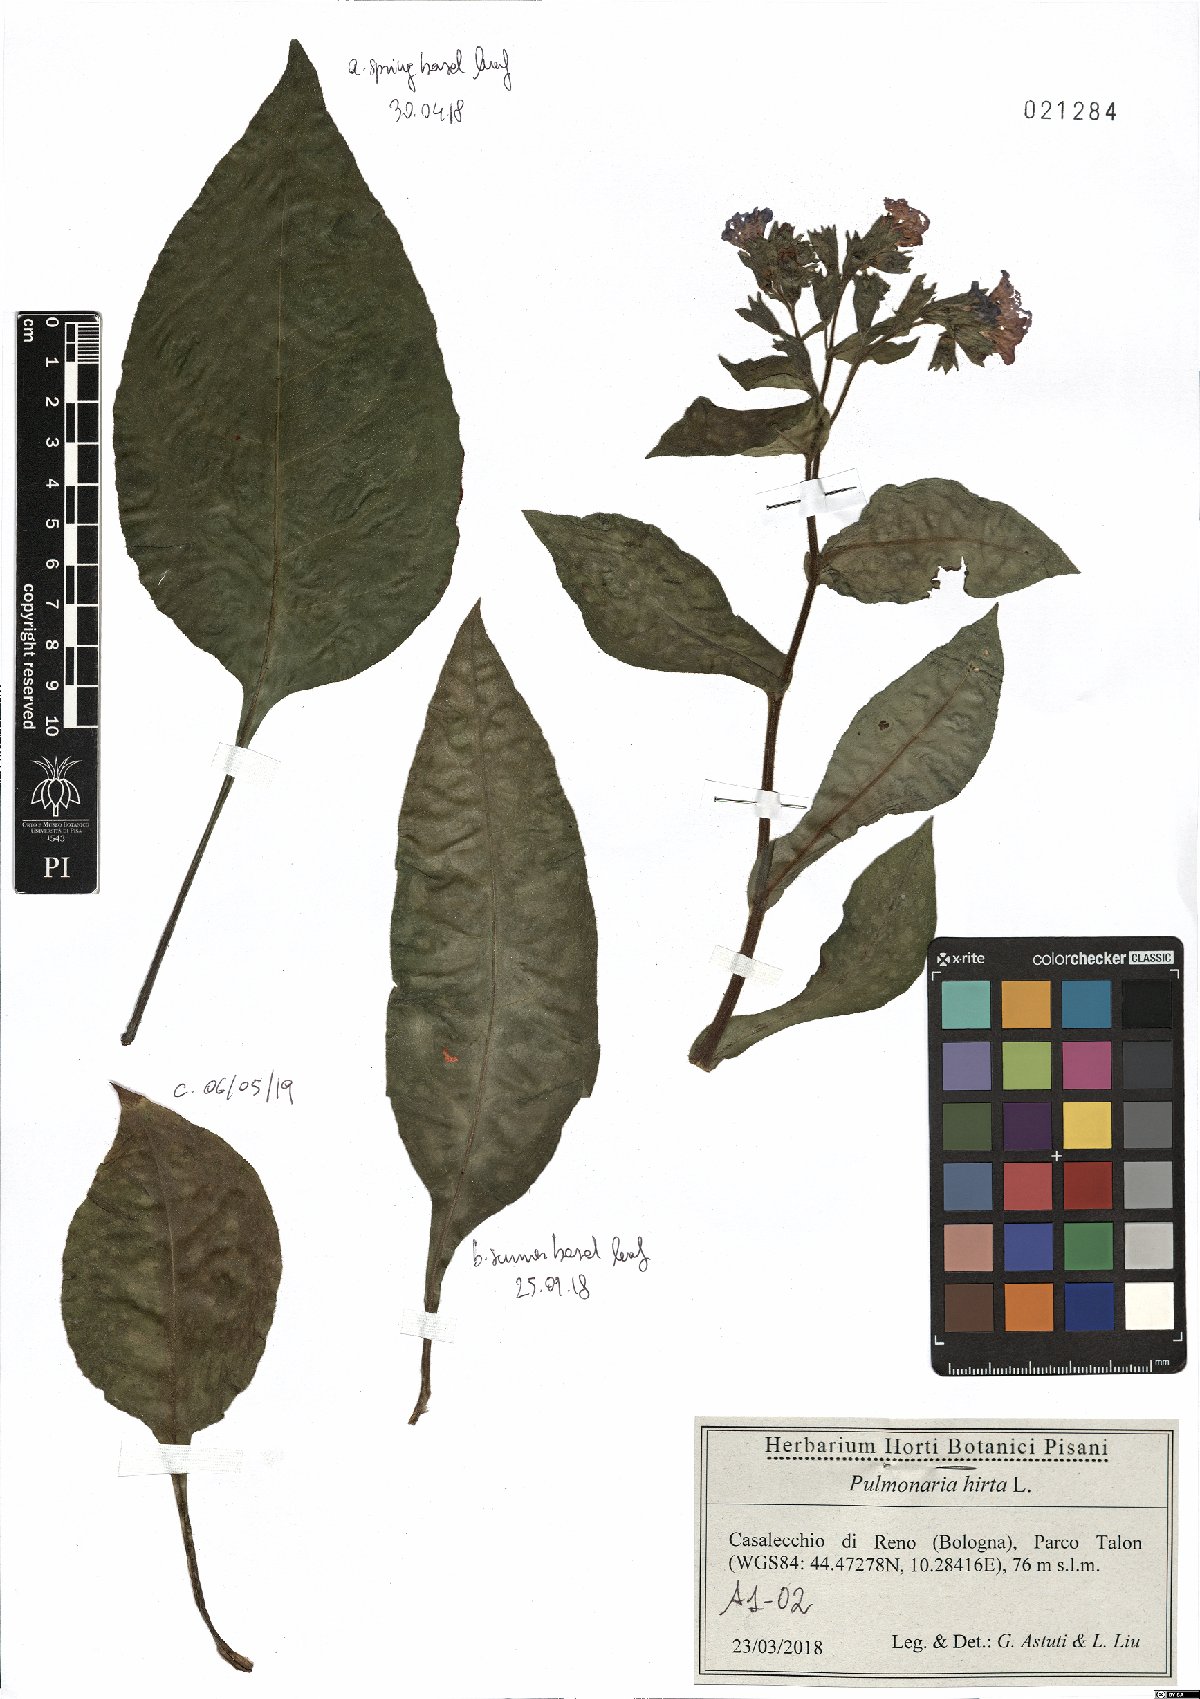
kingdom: Plantae
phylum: Tracheophyta
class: Magnoliopsida
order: Boraginales
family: Boraginaceae
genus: Pulmonaria
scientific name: Pulmonaria hirta
